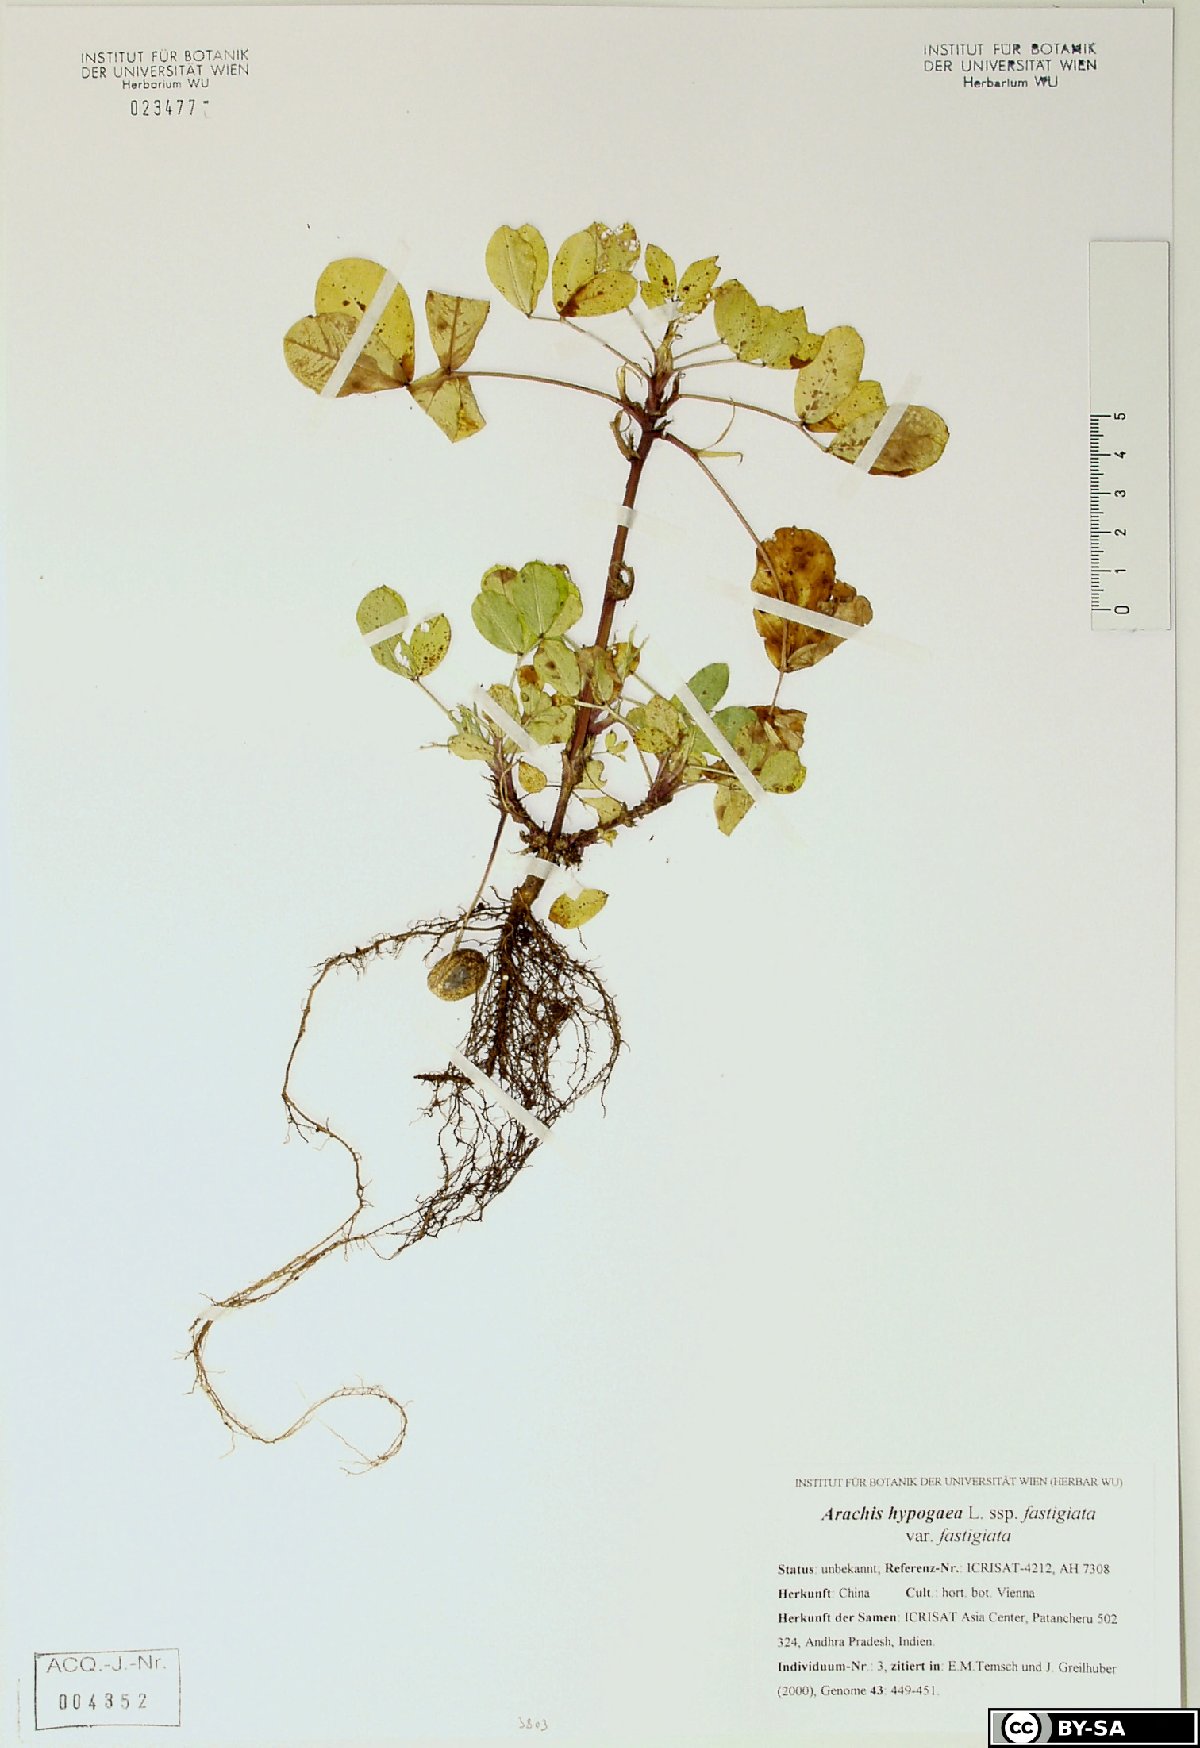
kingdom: Plantae
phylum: Tracheophyta
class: Magnoliopsida
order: Fabales
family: Fabaceae
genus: Arachis
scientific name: Arachis hypogaea
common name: Peanut
